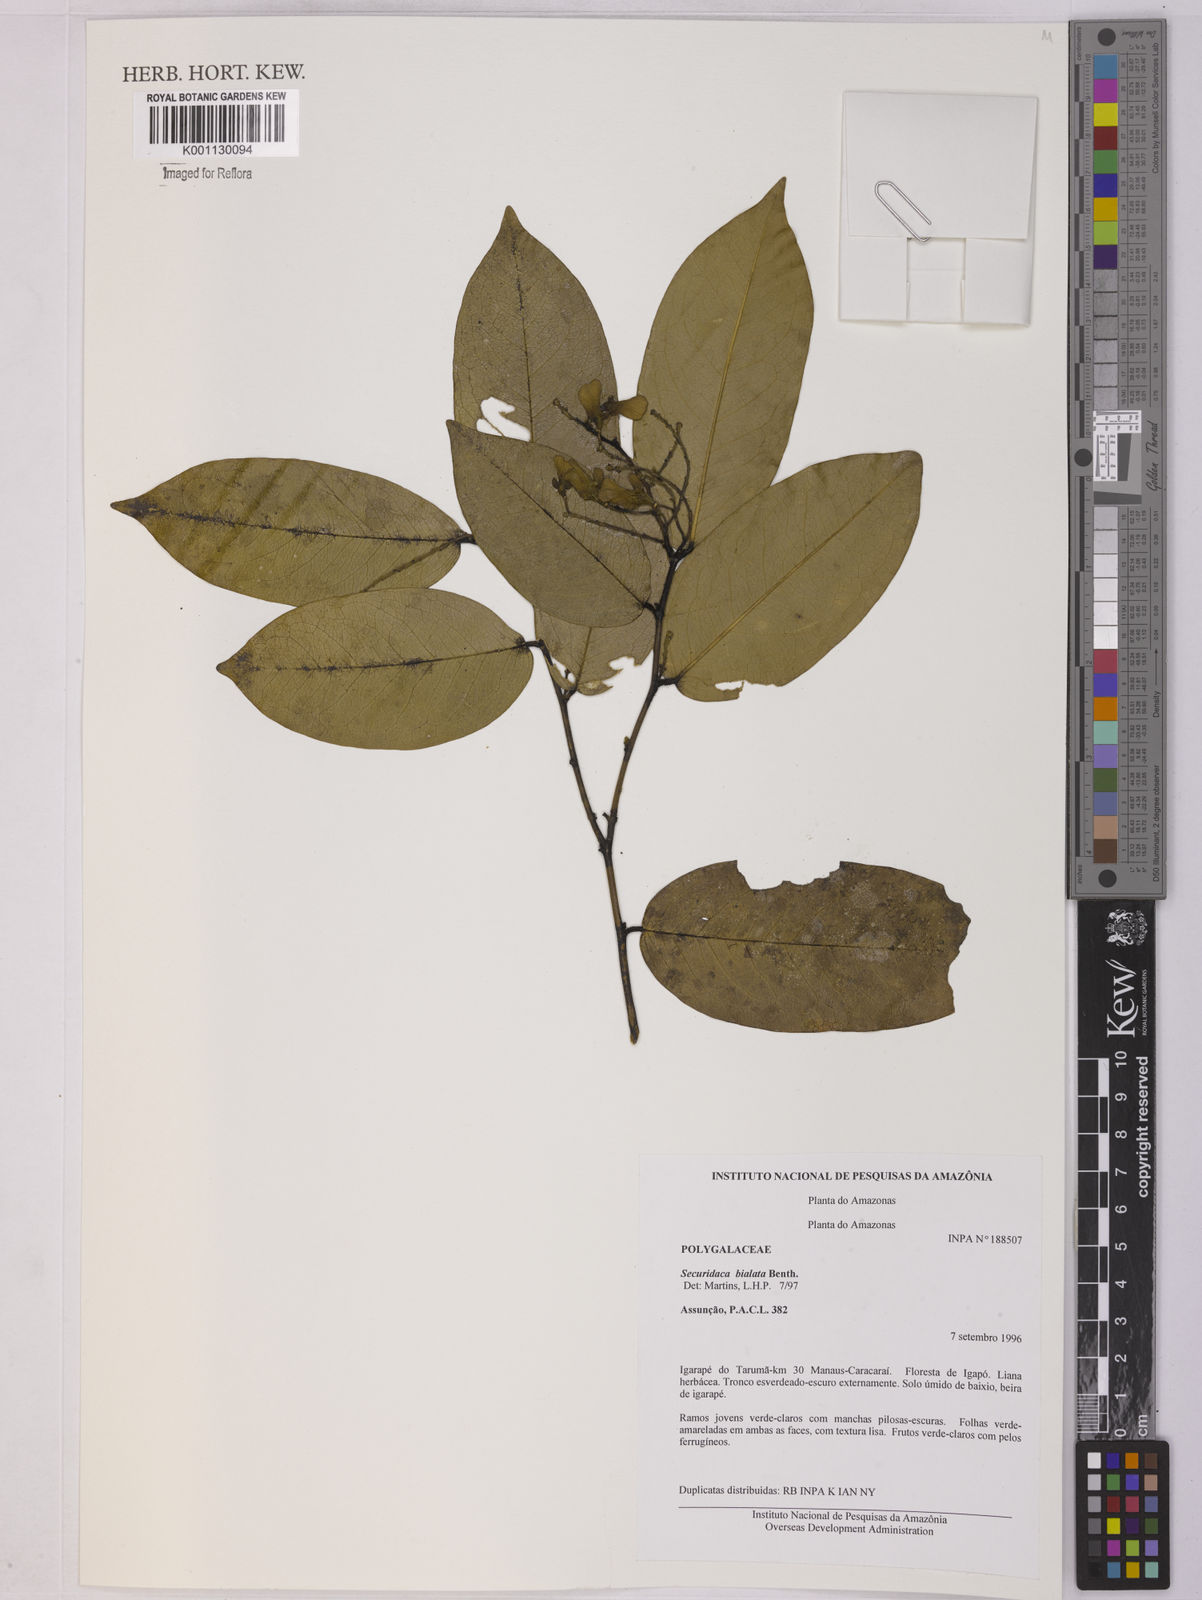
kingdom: Plantae
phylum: Tracheophyta
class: Magnoliopsida
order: Fabales
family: Polygalaceae
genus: Securidaca
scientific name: Securidaca bialata
